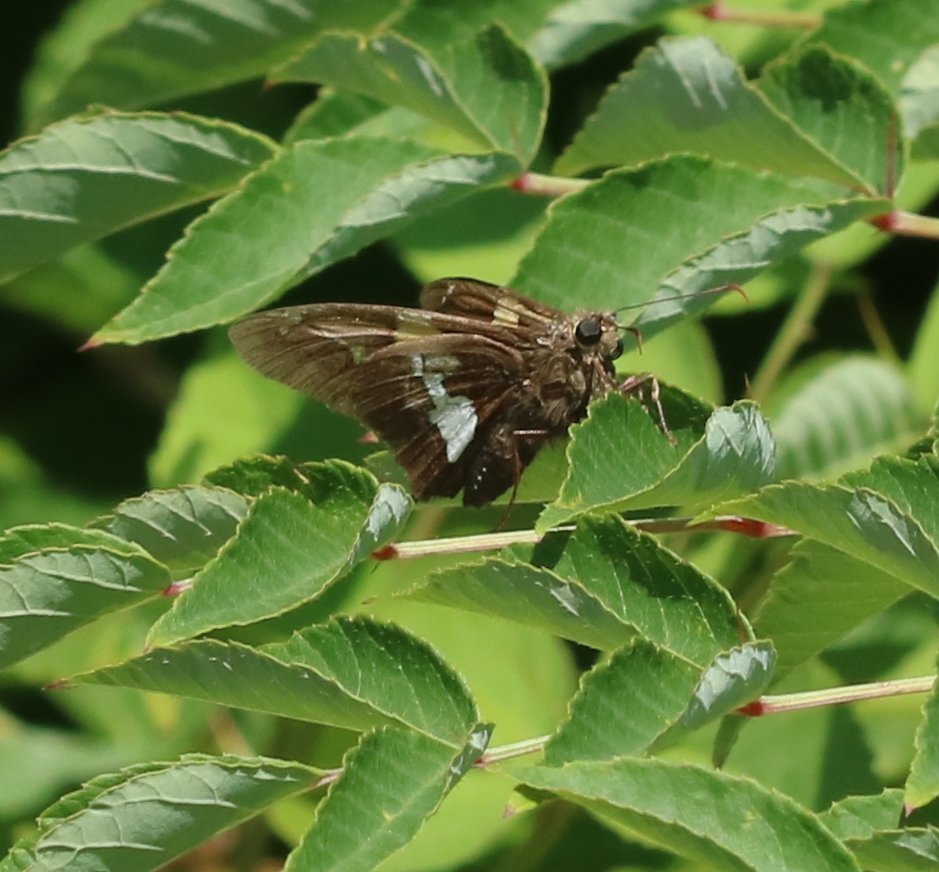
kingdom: Animalia
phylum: Arthropoda
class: Insecta
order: Lepidoptera
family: Hesperiidae
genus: Epargyreus
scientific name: Epargyreus clarus
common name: Silver-spotted Skipper
